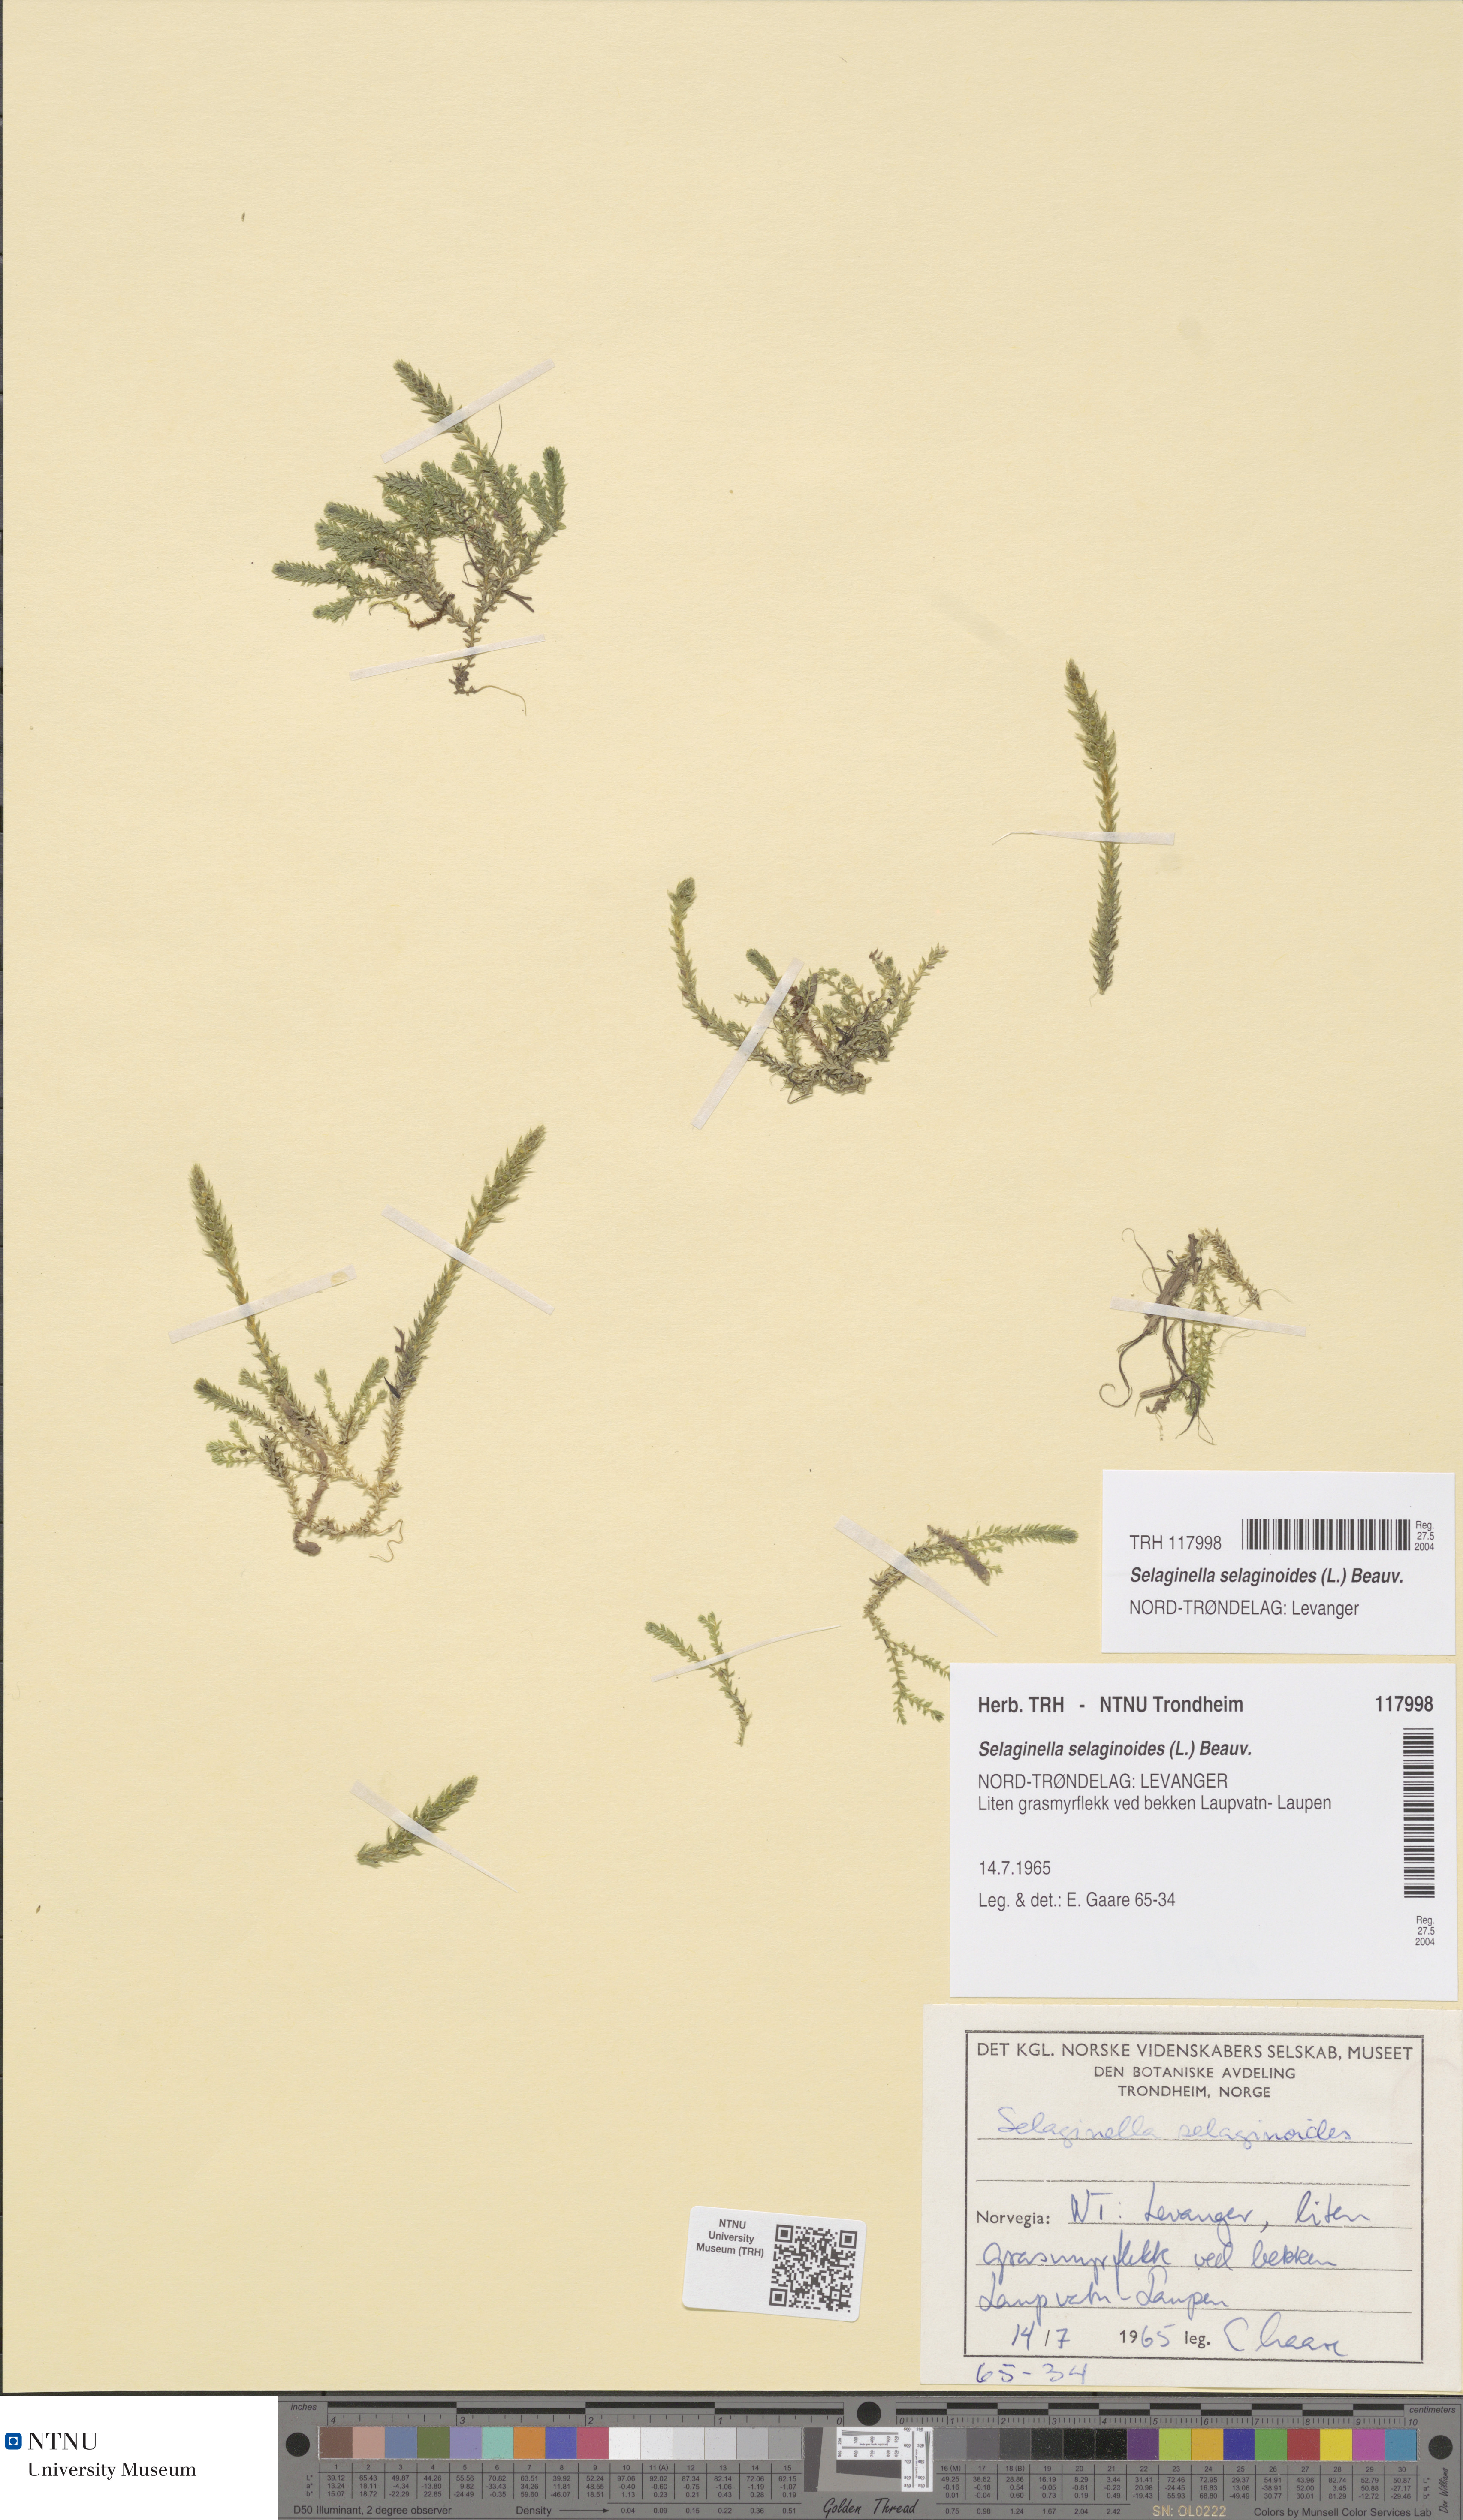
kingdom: Plantae
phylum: Tracheophyta
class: Lycopodiopsida
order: Selaginellales
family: Selaginellaceae
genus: Selaginella
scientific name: Selaginella selaginoides
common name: Prickly mountain-moss
